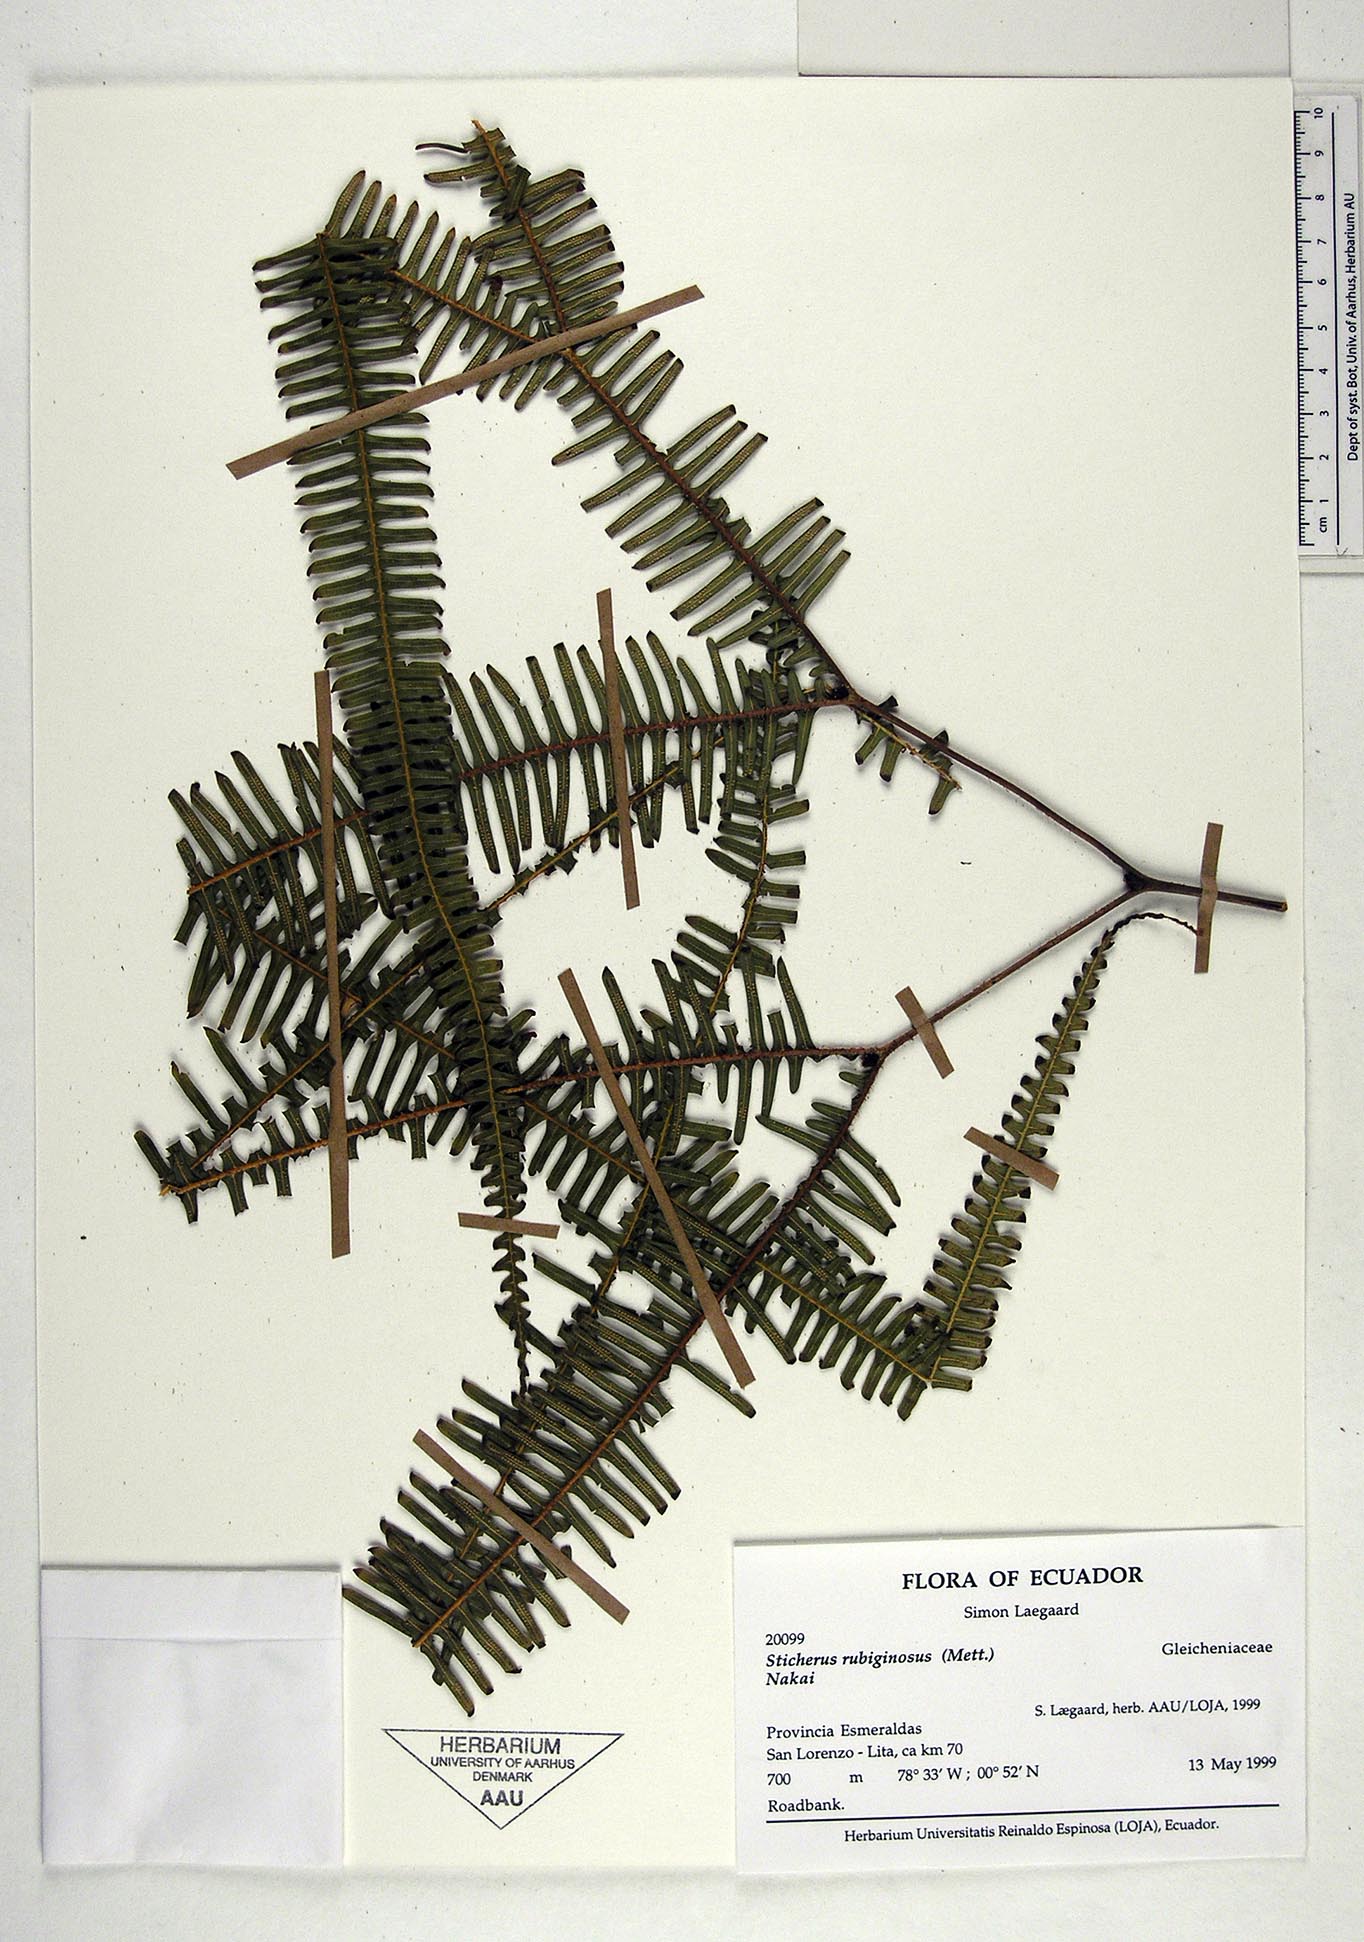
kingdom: Plantae
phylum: Tracheophyta
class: Polypodiopsida
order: Gleicheniales
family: Gleicheniaceae
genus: Sticherus
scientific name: Sticherus rubiginosus
